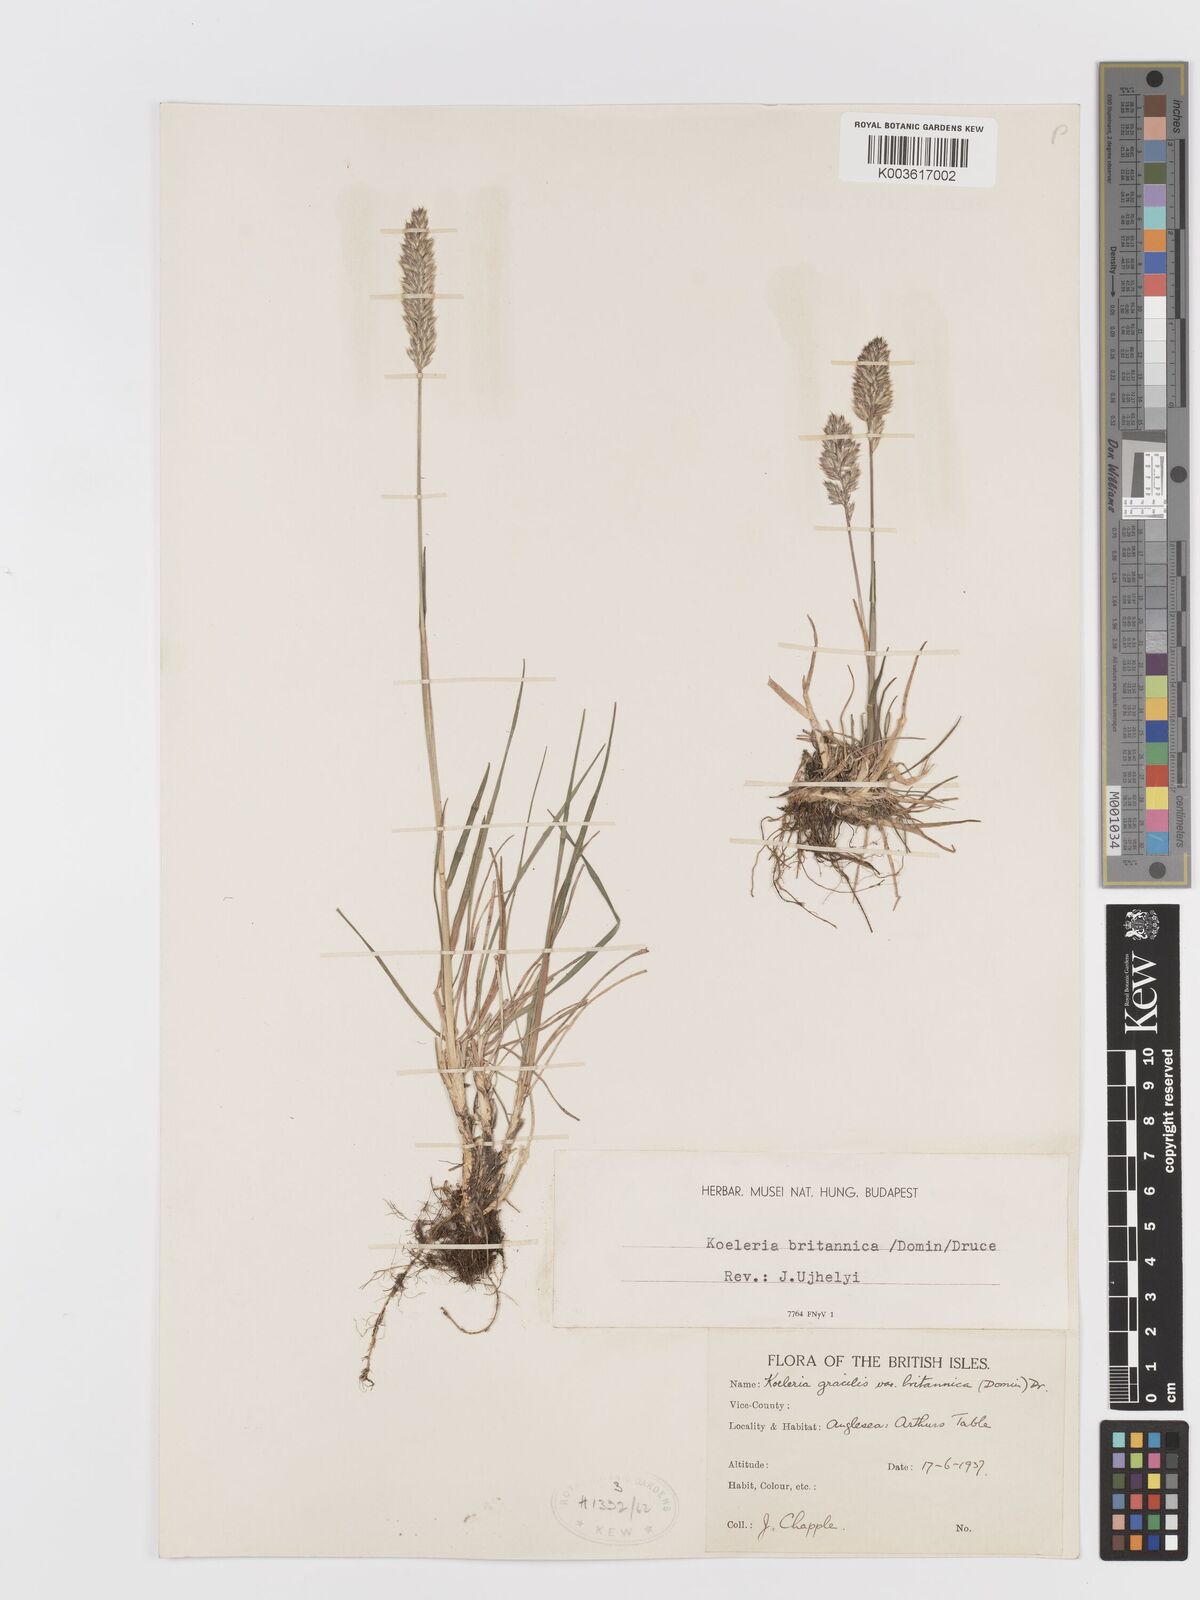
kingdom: Plantae
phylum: Tracheophyta
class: Liliopsida
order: Poales
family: Poaceae
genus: Koeleria
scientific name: Koeleria macrantha
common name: Crested hair-grass
